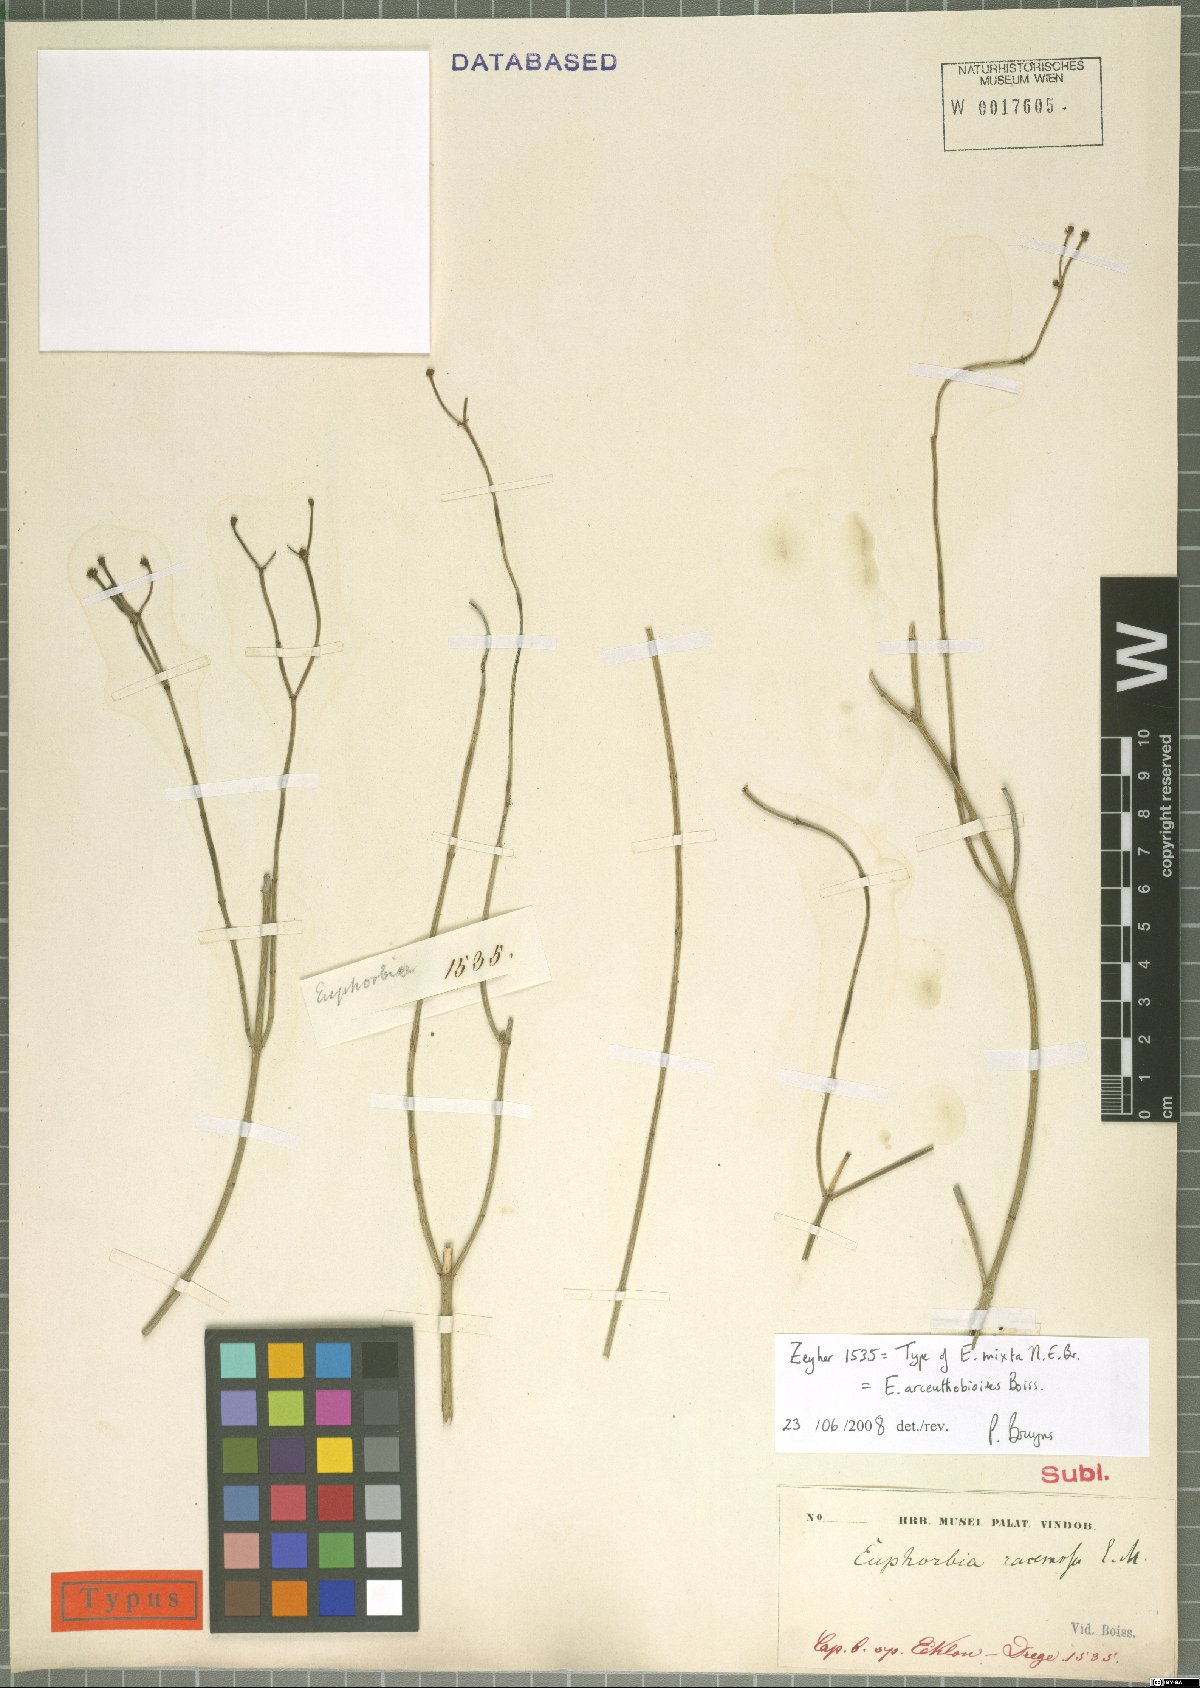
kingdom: Plantae
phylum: Tracheophyta
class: Magnoliopsida
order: Malpighiales
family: Euphorbiaceae
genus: Euphorbia
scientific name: Euphorbia arceuthobioides
